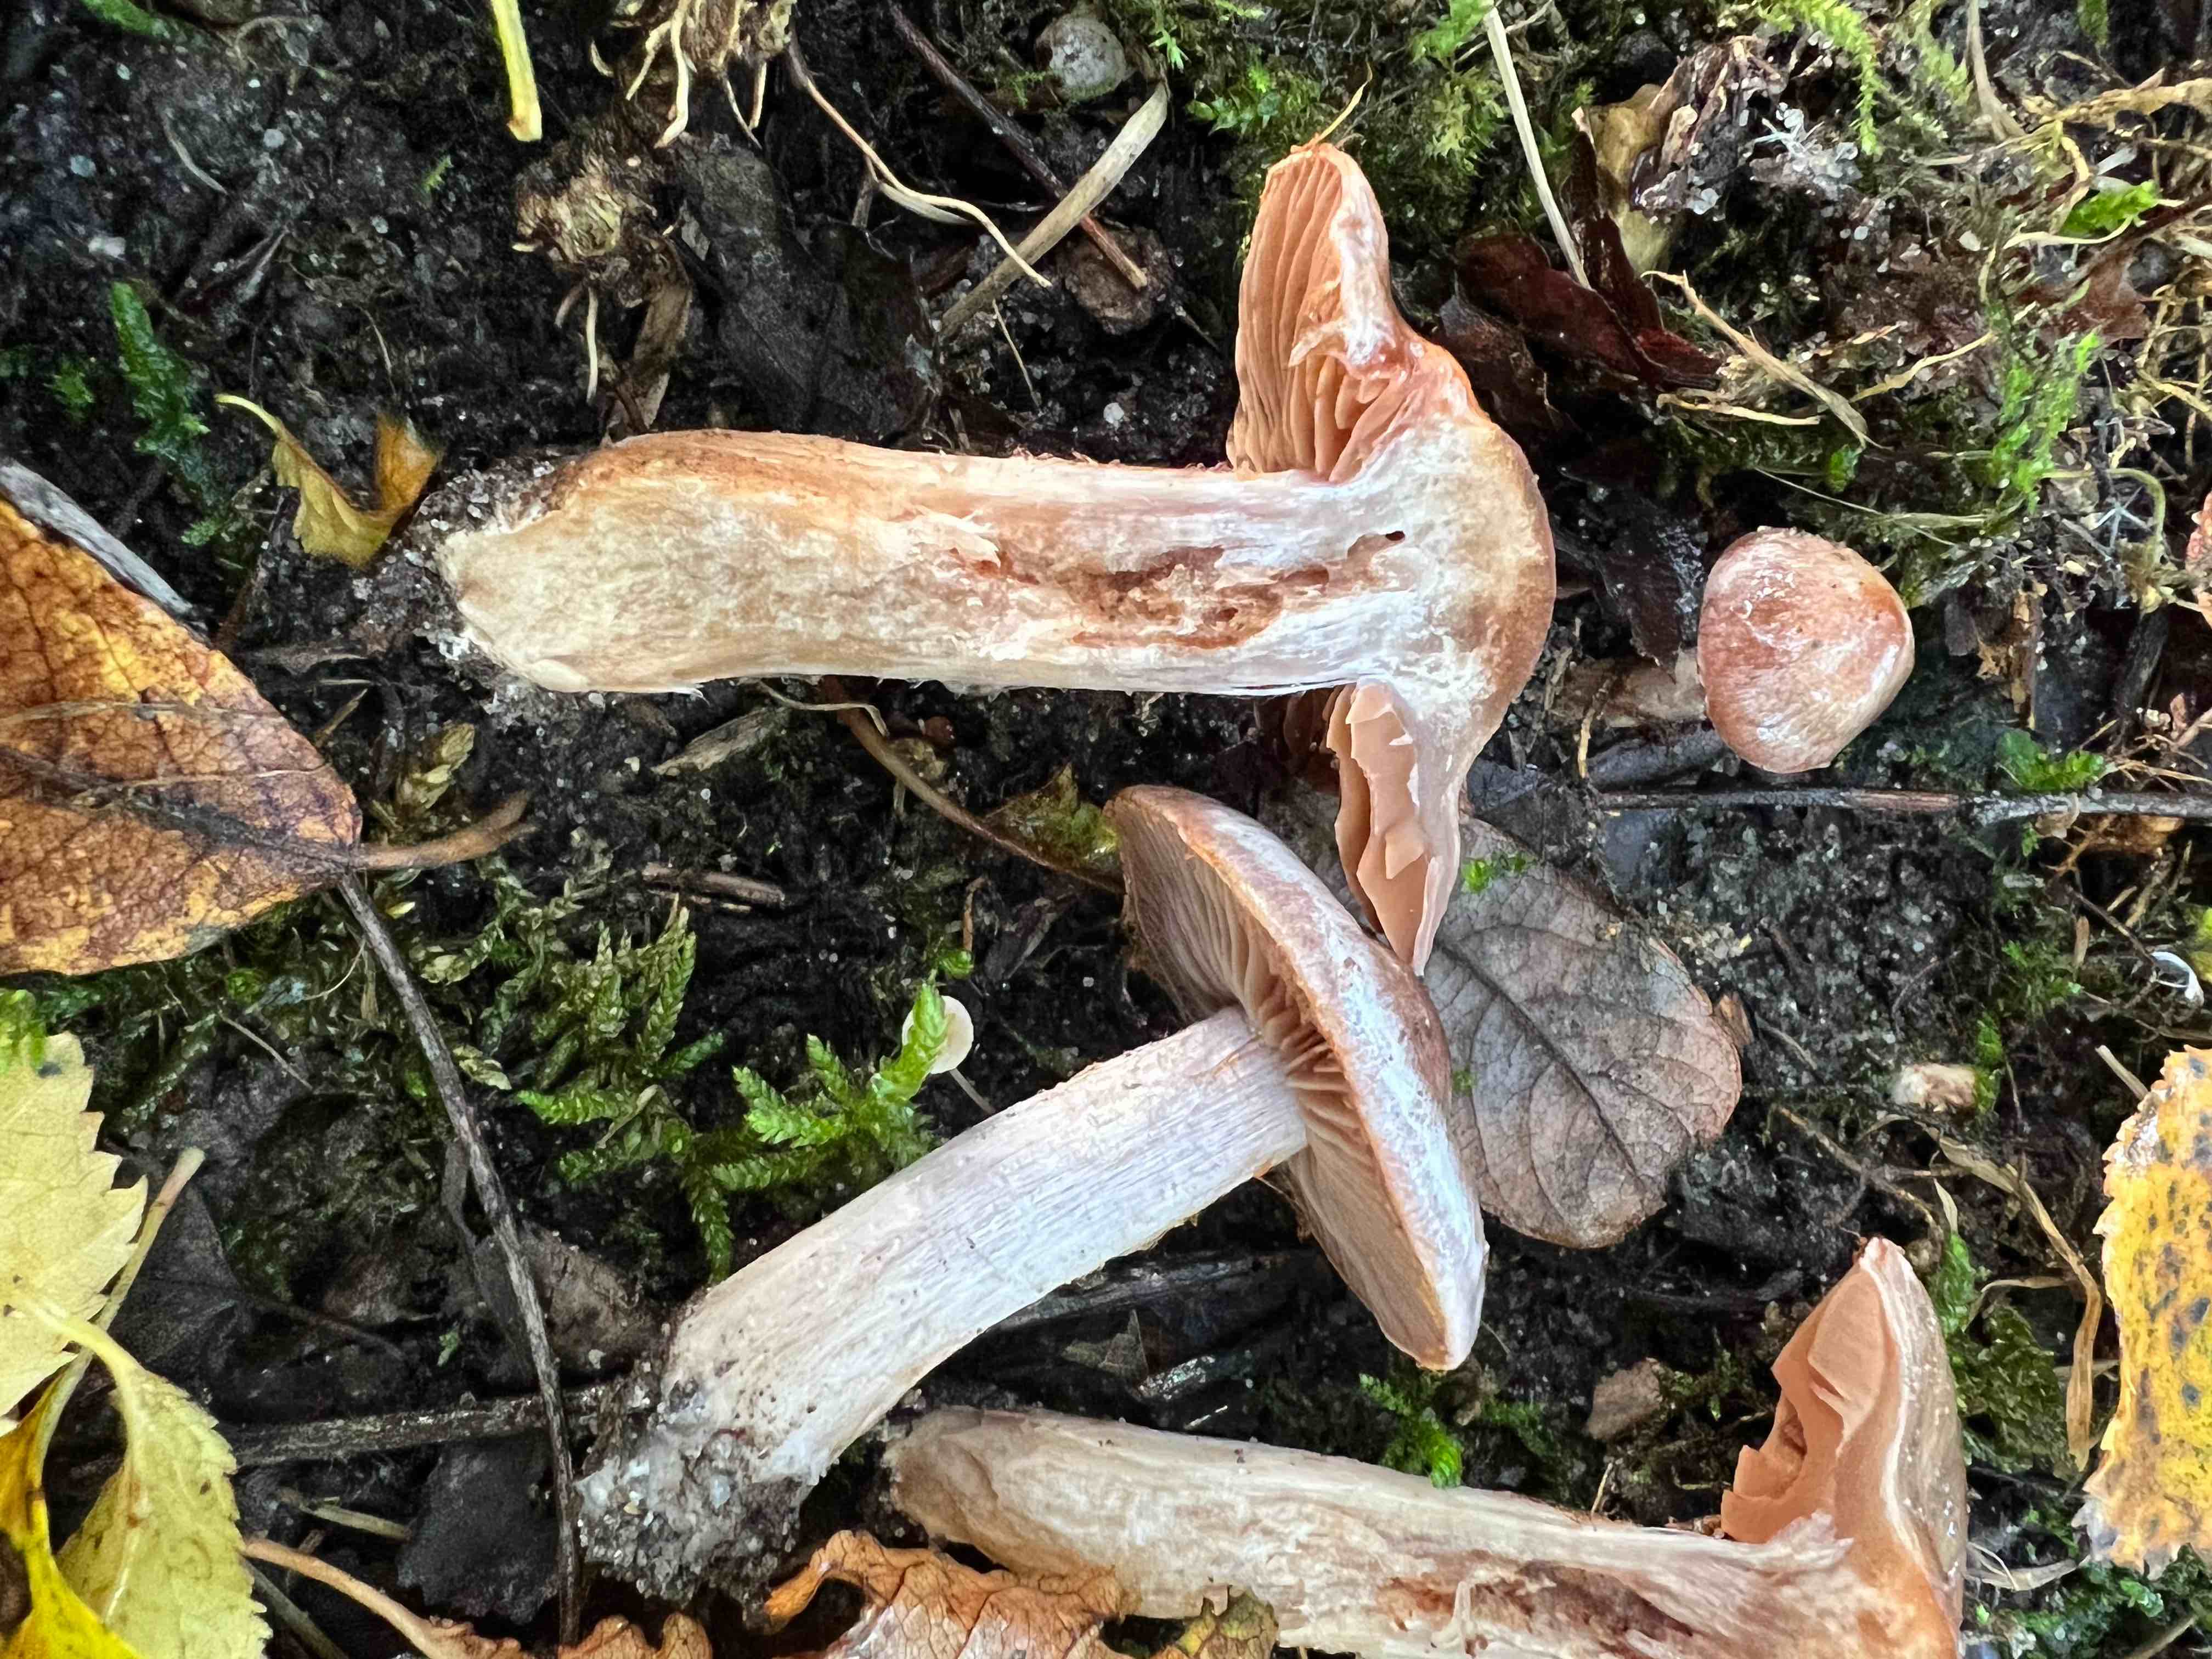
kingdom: Fungi
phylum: Basidiomycota
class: Agaricomycetes
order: Agaricales
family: Cortinariaceae
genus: Cortinarius
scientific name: Cortinarius
